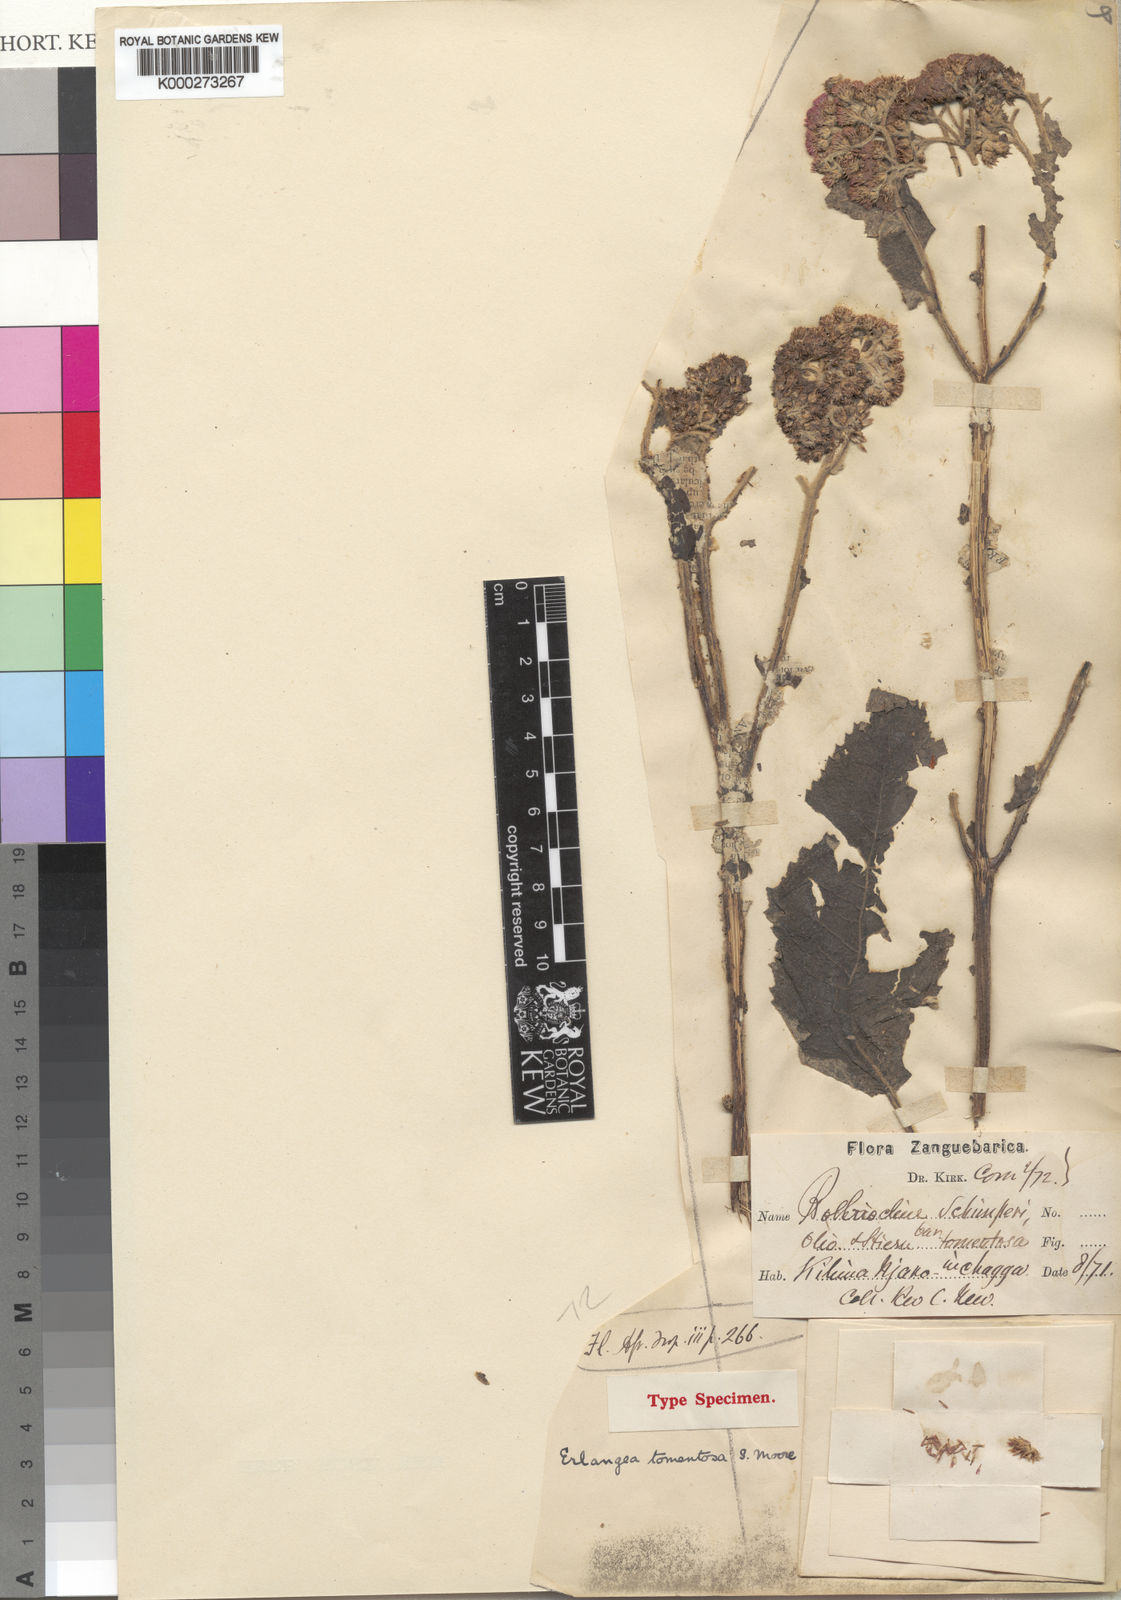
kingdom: Plantae
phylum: Tracheophyta
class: Magnoliopsida
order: Asterales
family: Asteraceae
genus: Bothriocline
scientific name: Bothriocline longipes
